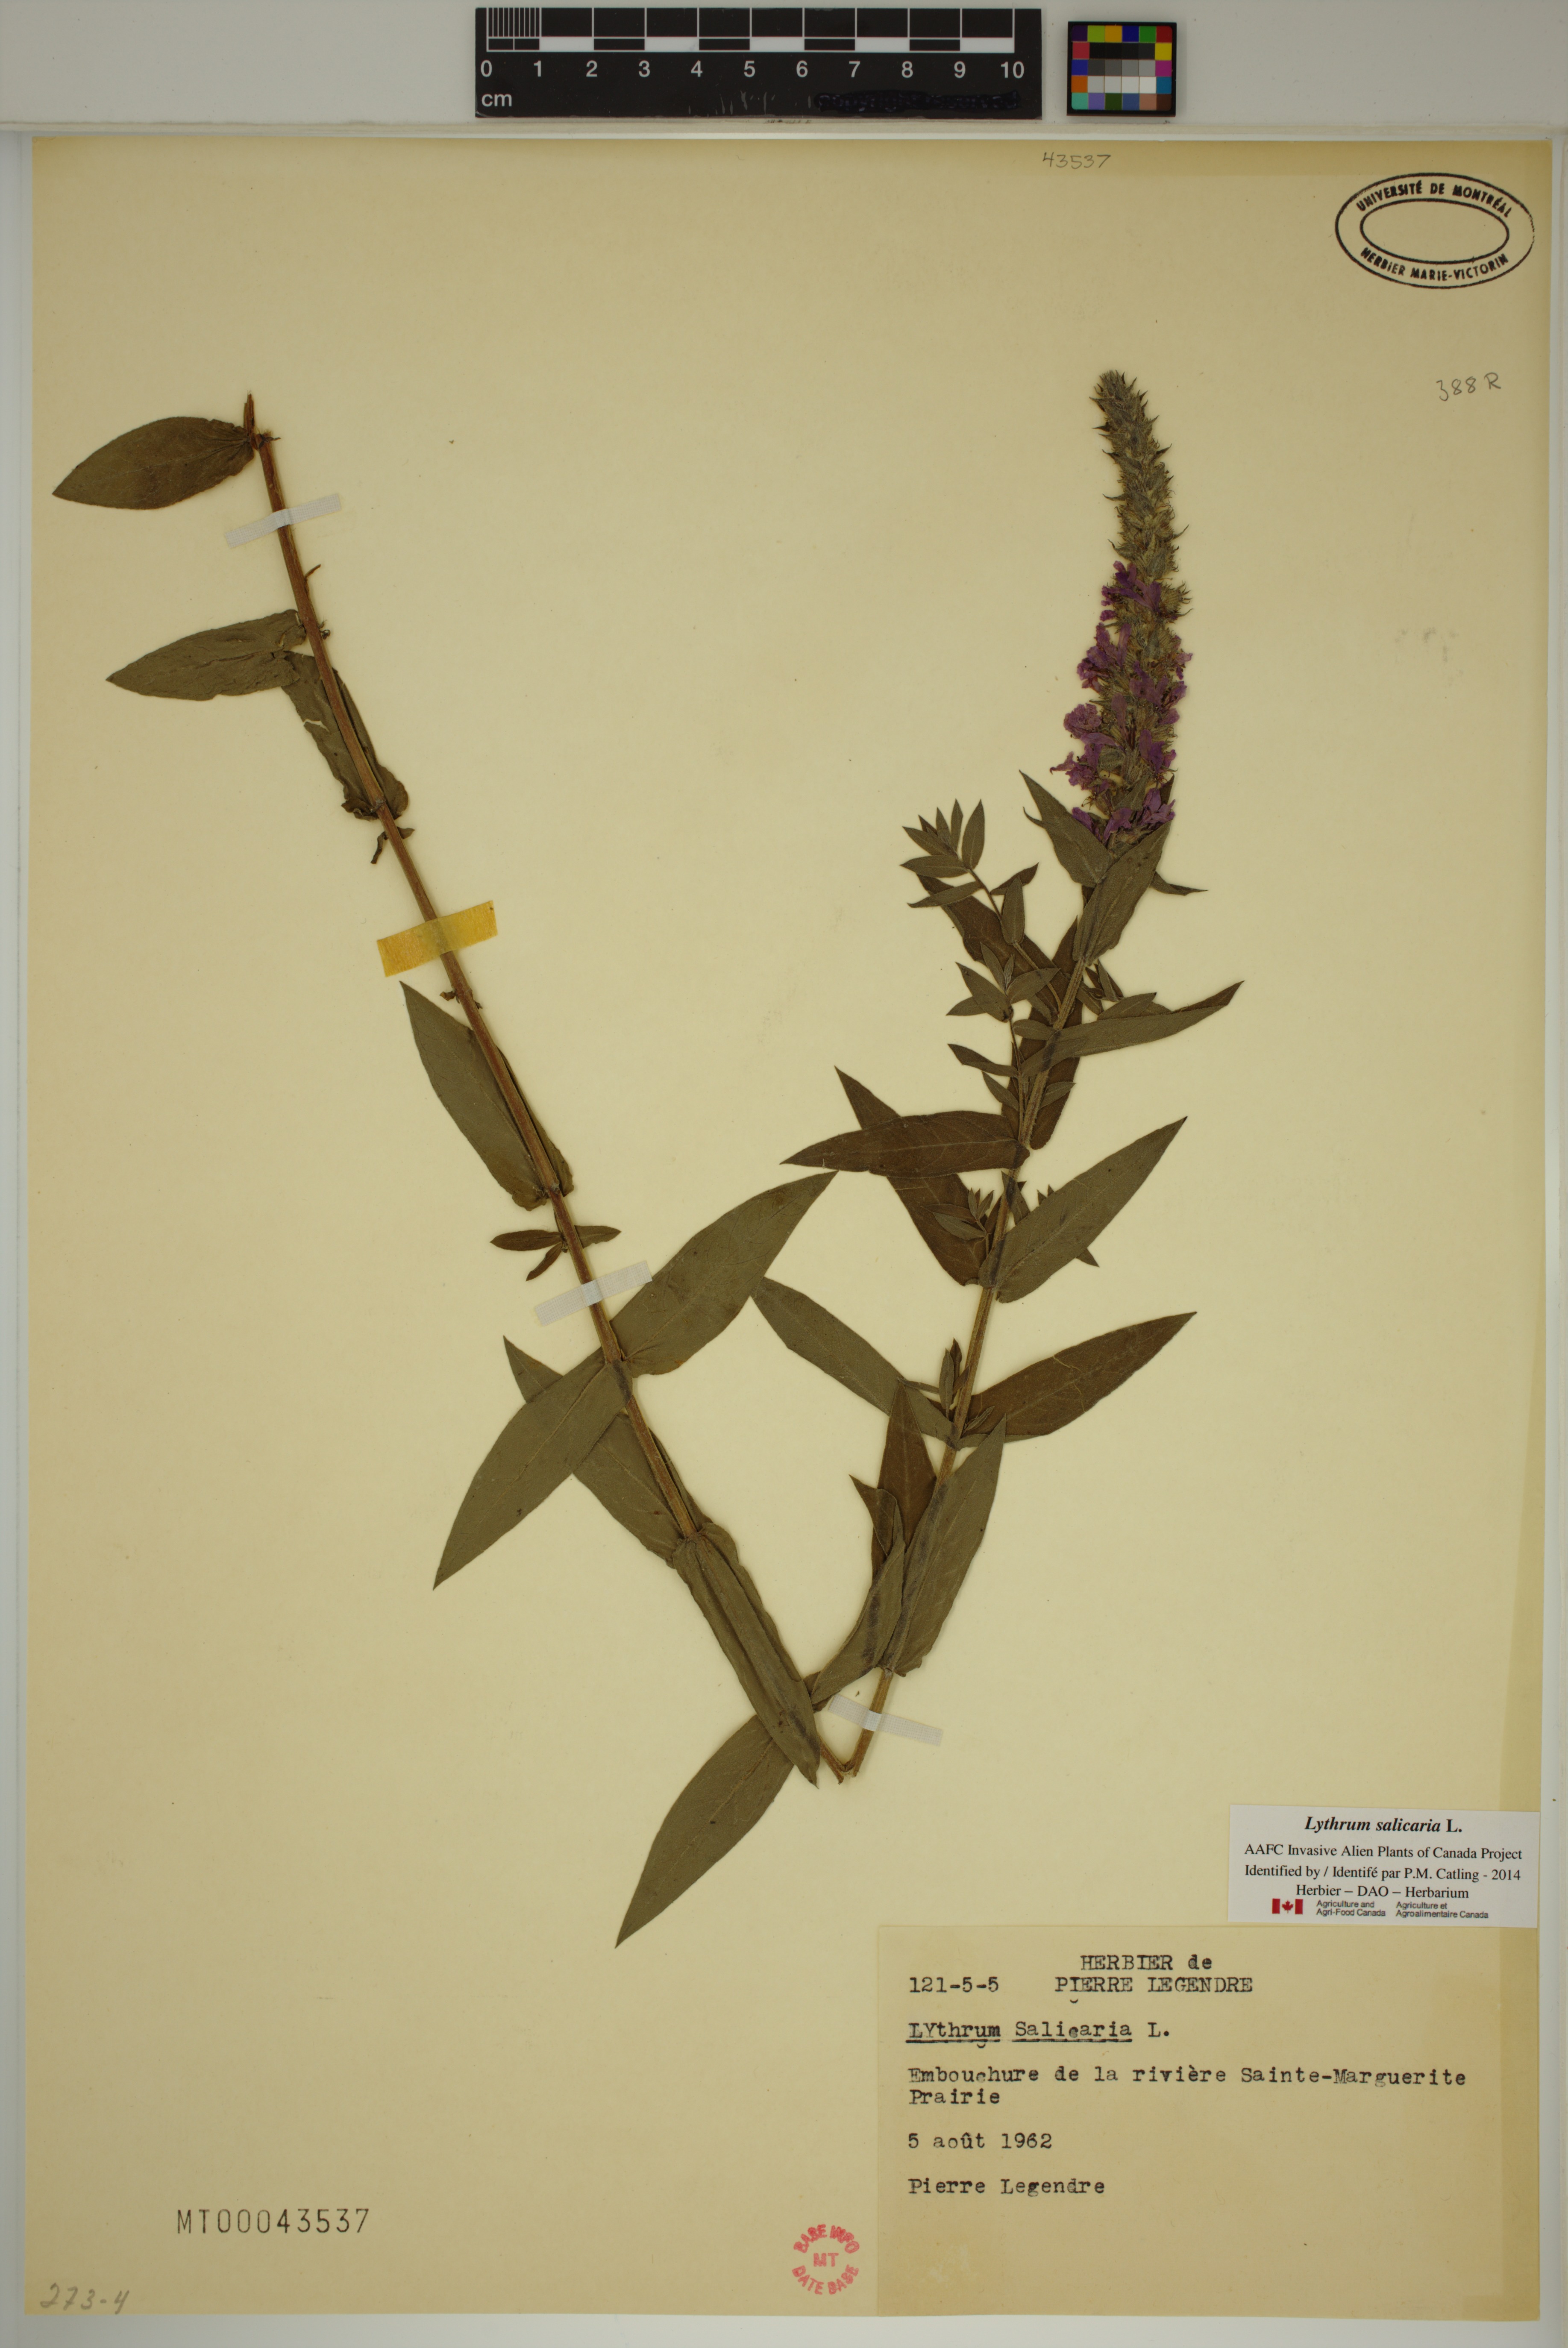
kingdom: Plantae
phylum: Tracheophyta
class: Magnoliopsida
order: Myrtales
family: Lythraceae
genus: Lythrum
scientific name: Lythrum salicaria
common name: Purple loosestrife
